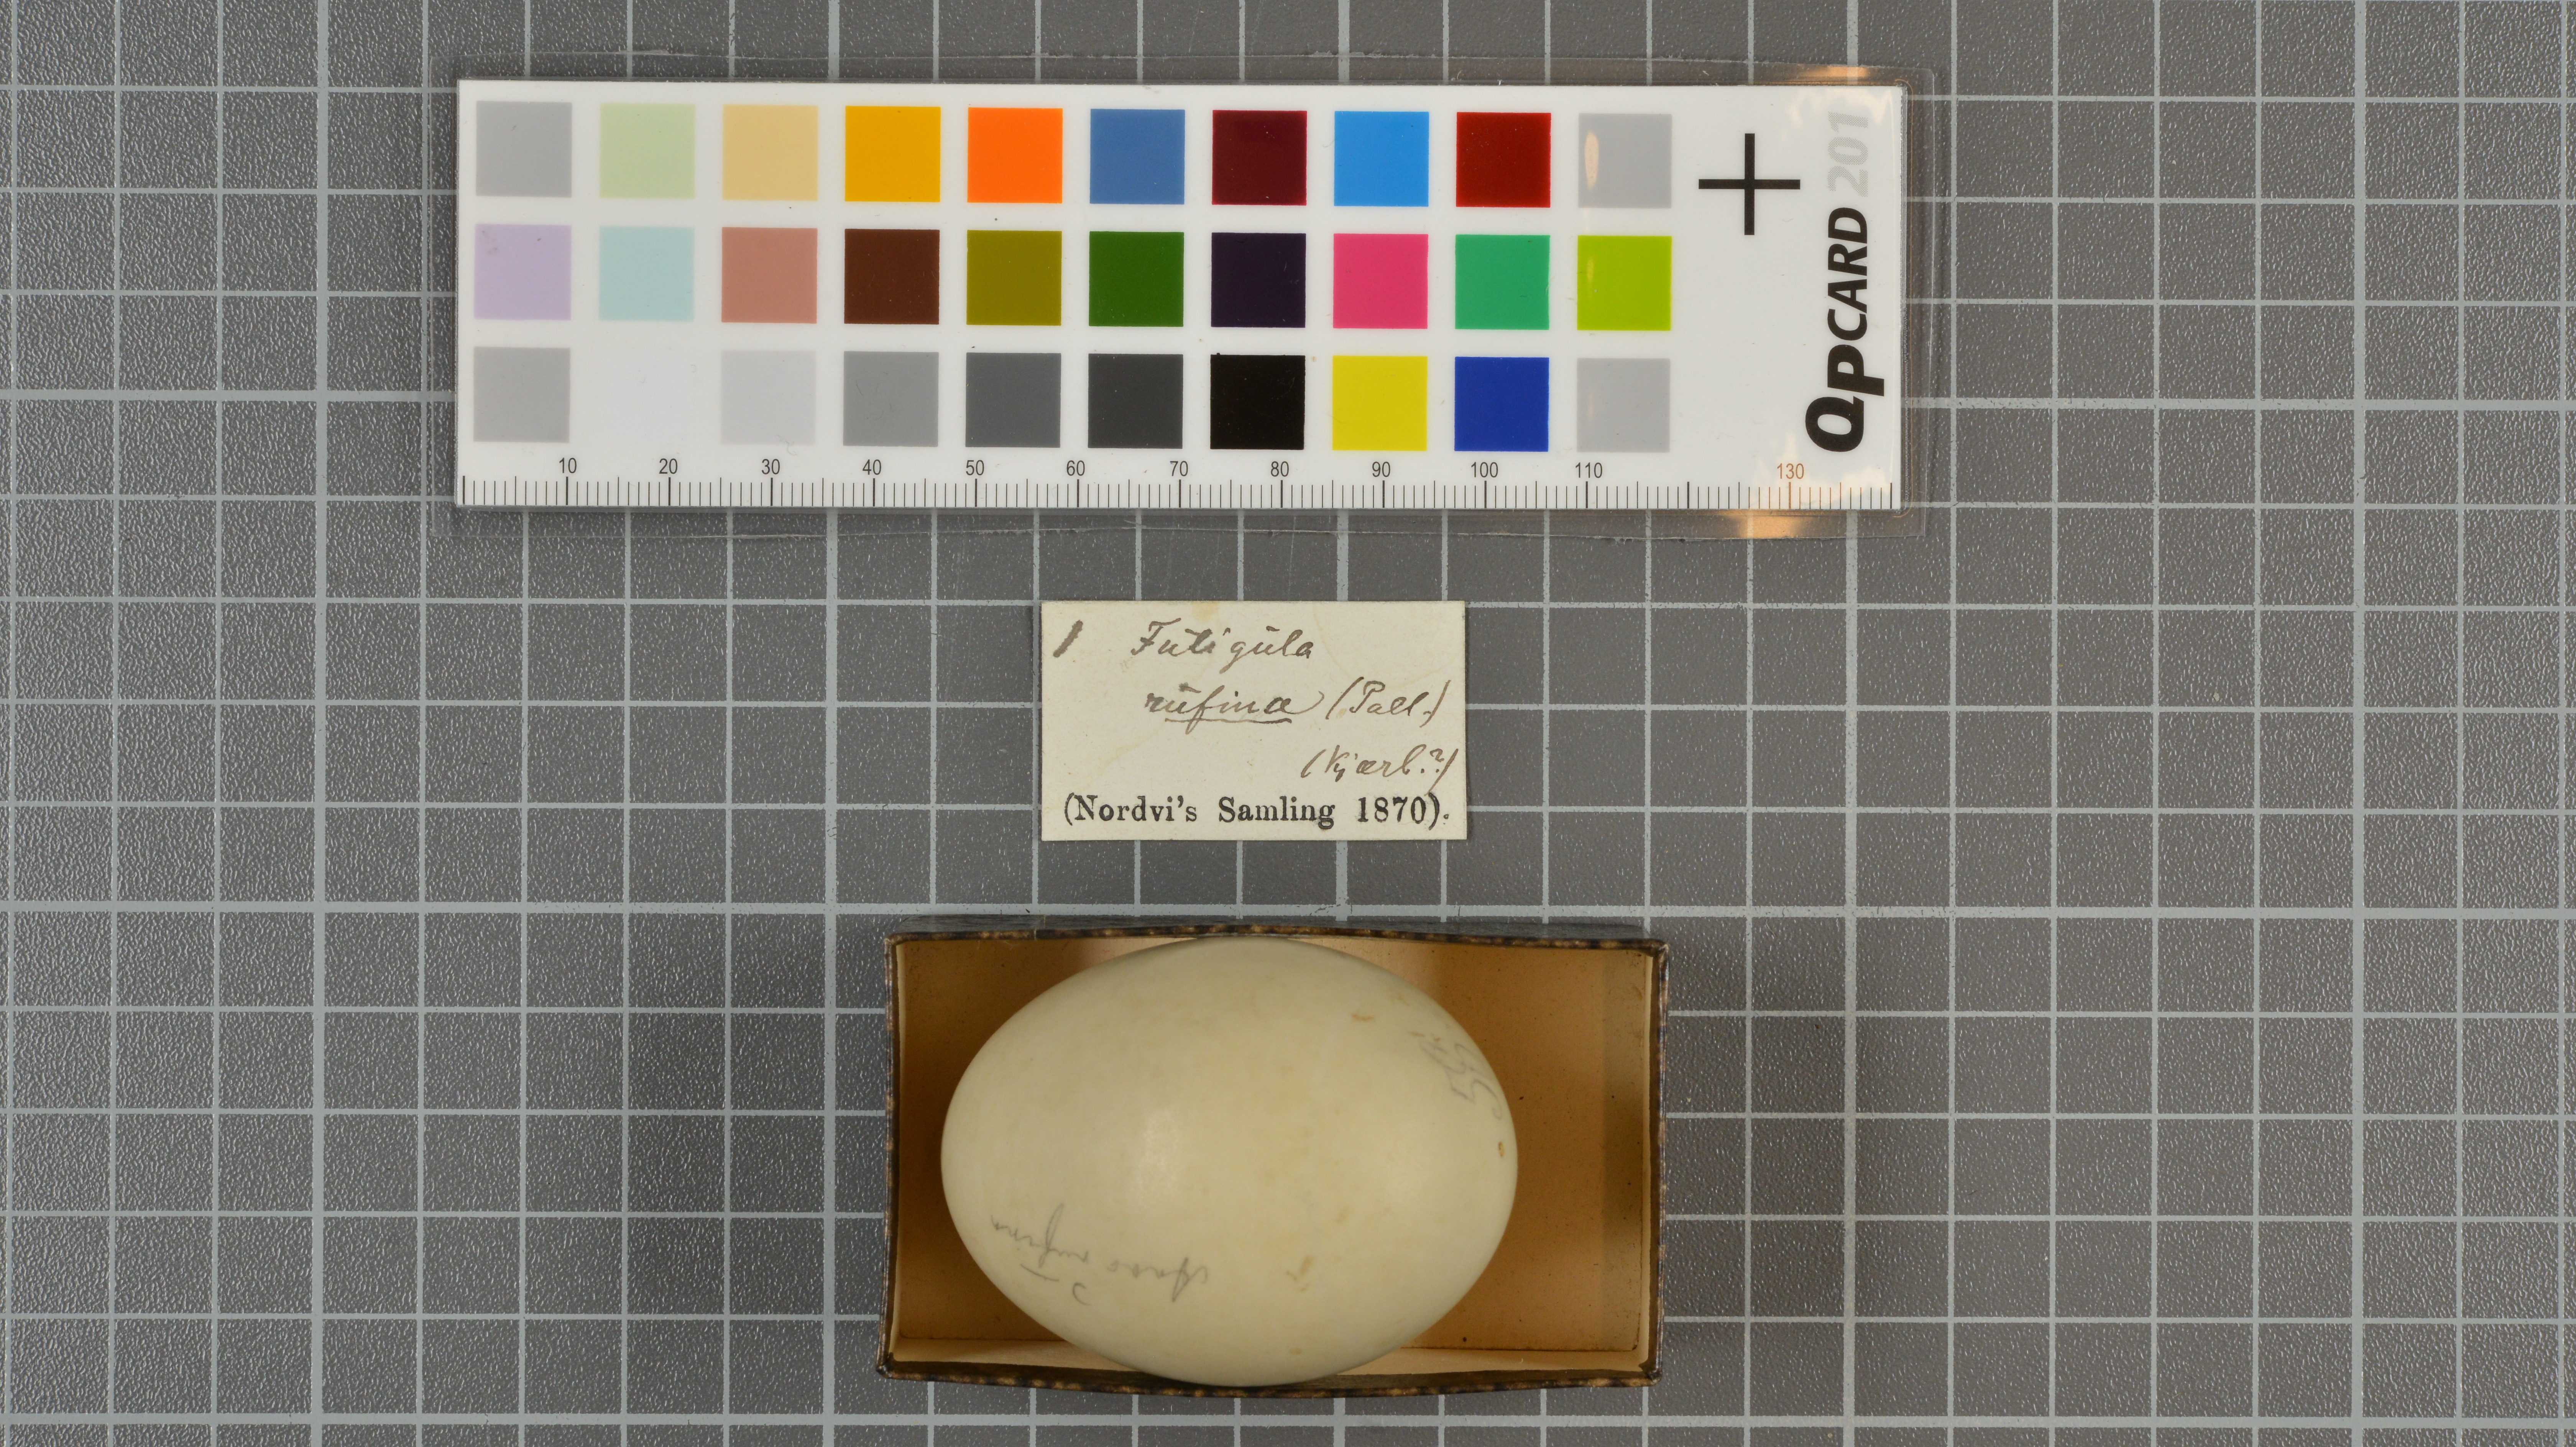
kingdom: Animalia
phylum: Chordata
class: Aves
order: Anseriformes
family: Anatidae
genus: Netta
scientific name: Netta rufina
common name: Red-crested pochard
